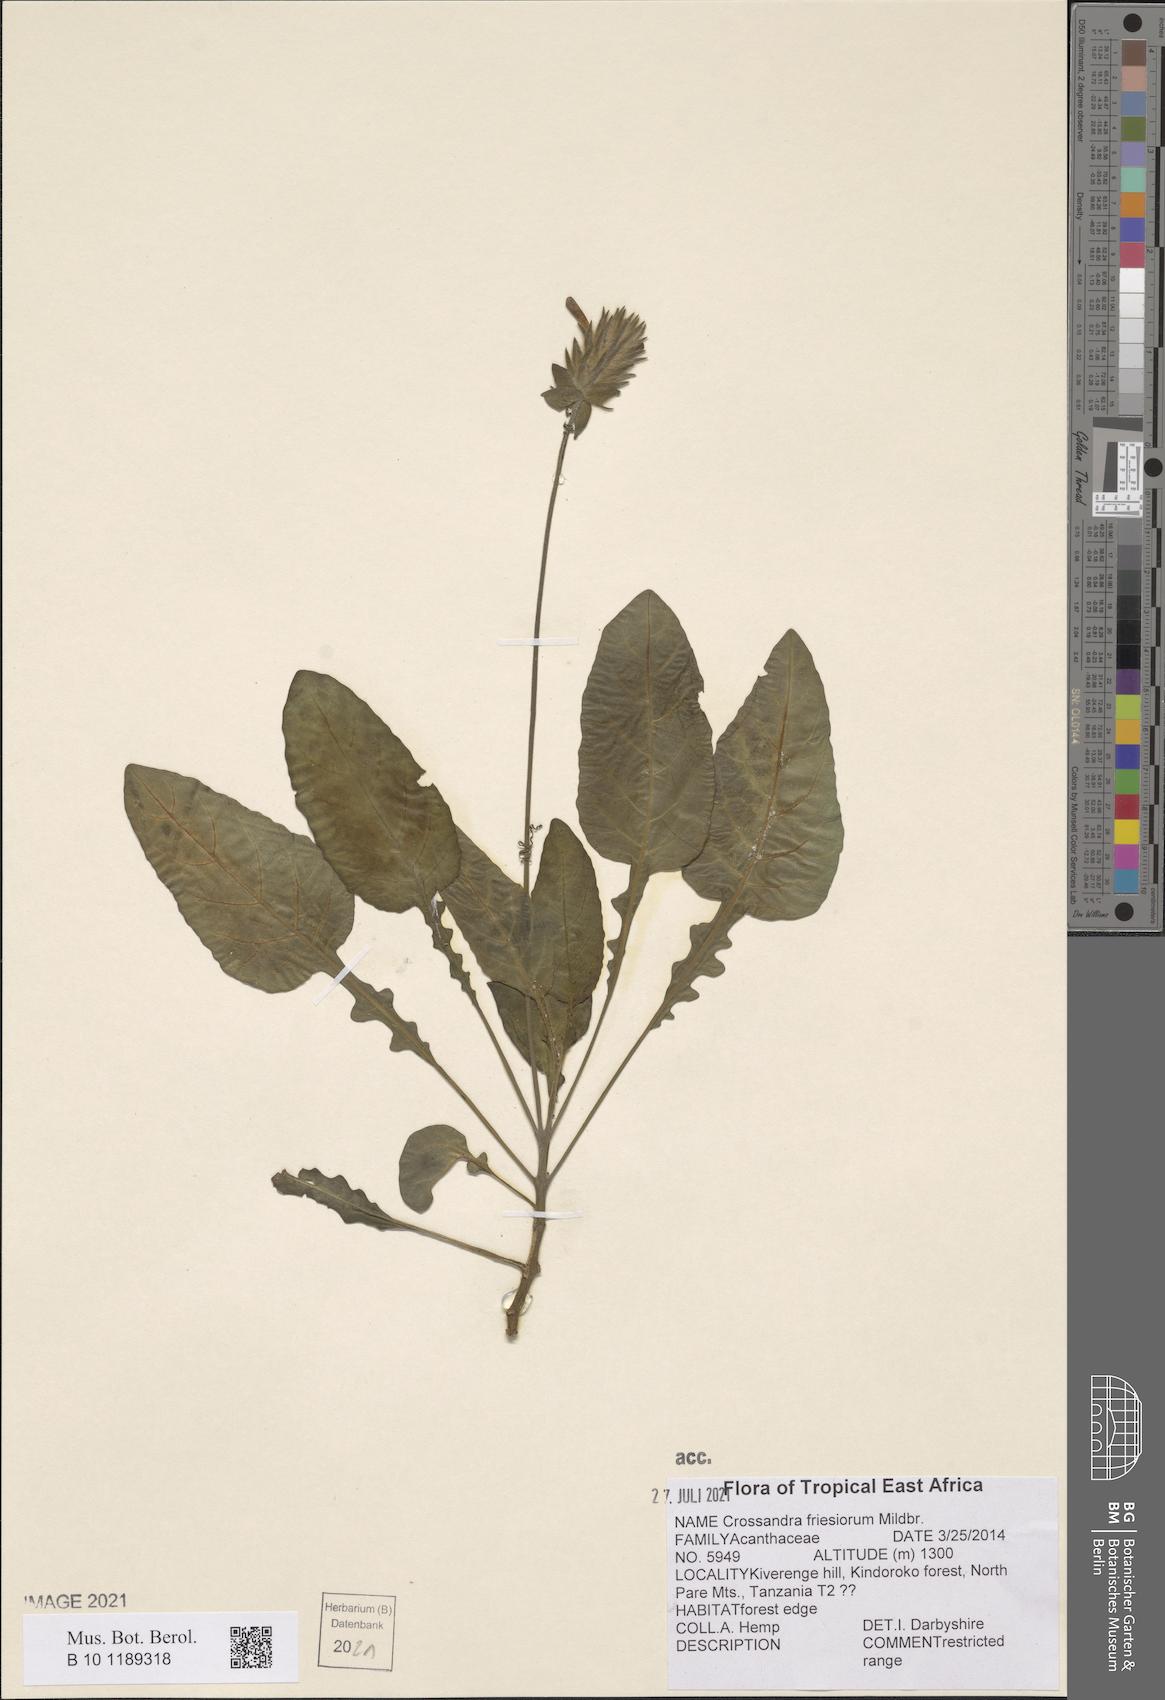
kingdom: Plantae
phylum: Tracheophyta
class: Magnoliopsida
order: Lamiales
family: Acanthaceae
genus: Crossandra
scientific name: Crossandra friesiorum
